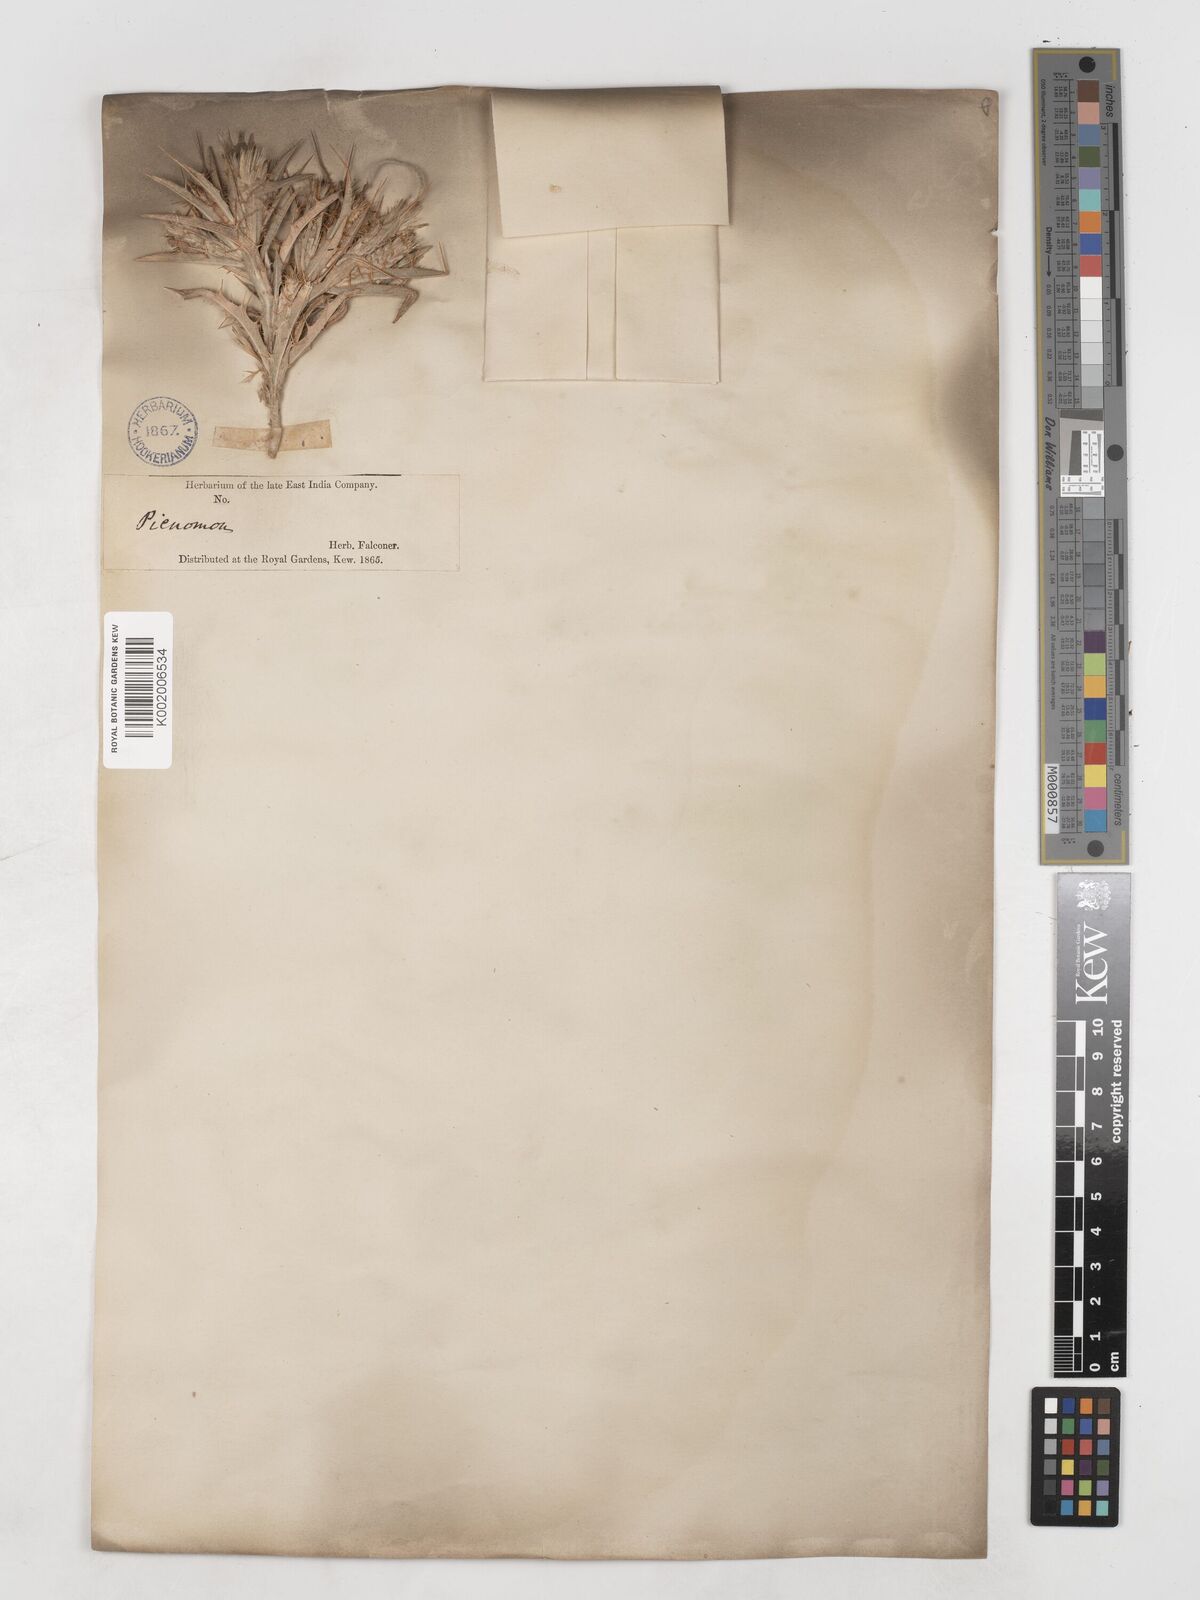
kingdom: Plantae
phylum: Tracheophyta
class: Magnoliopsida
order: Asterales
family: Asteraceae
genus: Picnomon
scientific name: Picnomon acarna
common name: Soldier thistle
